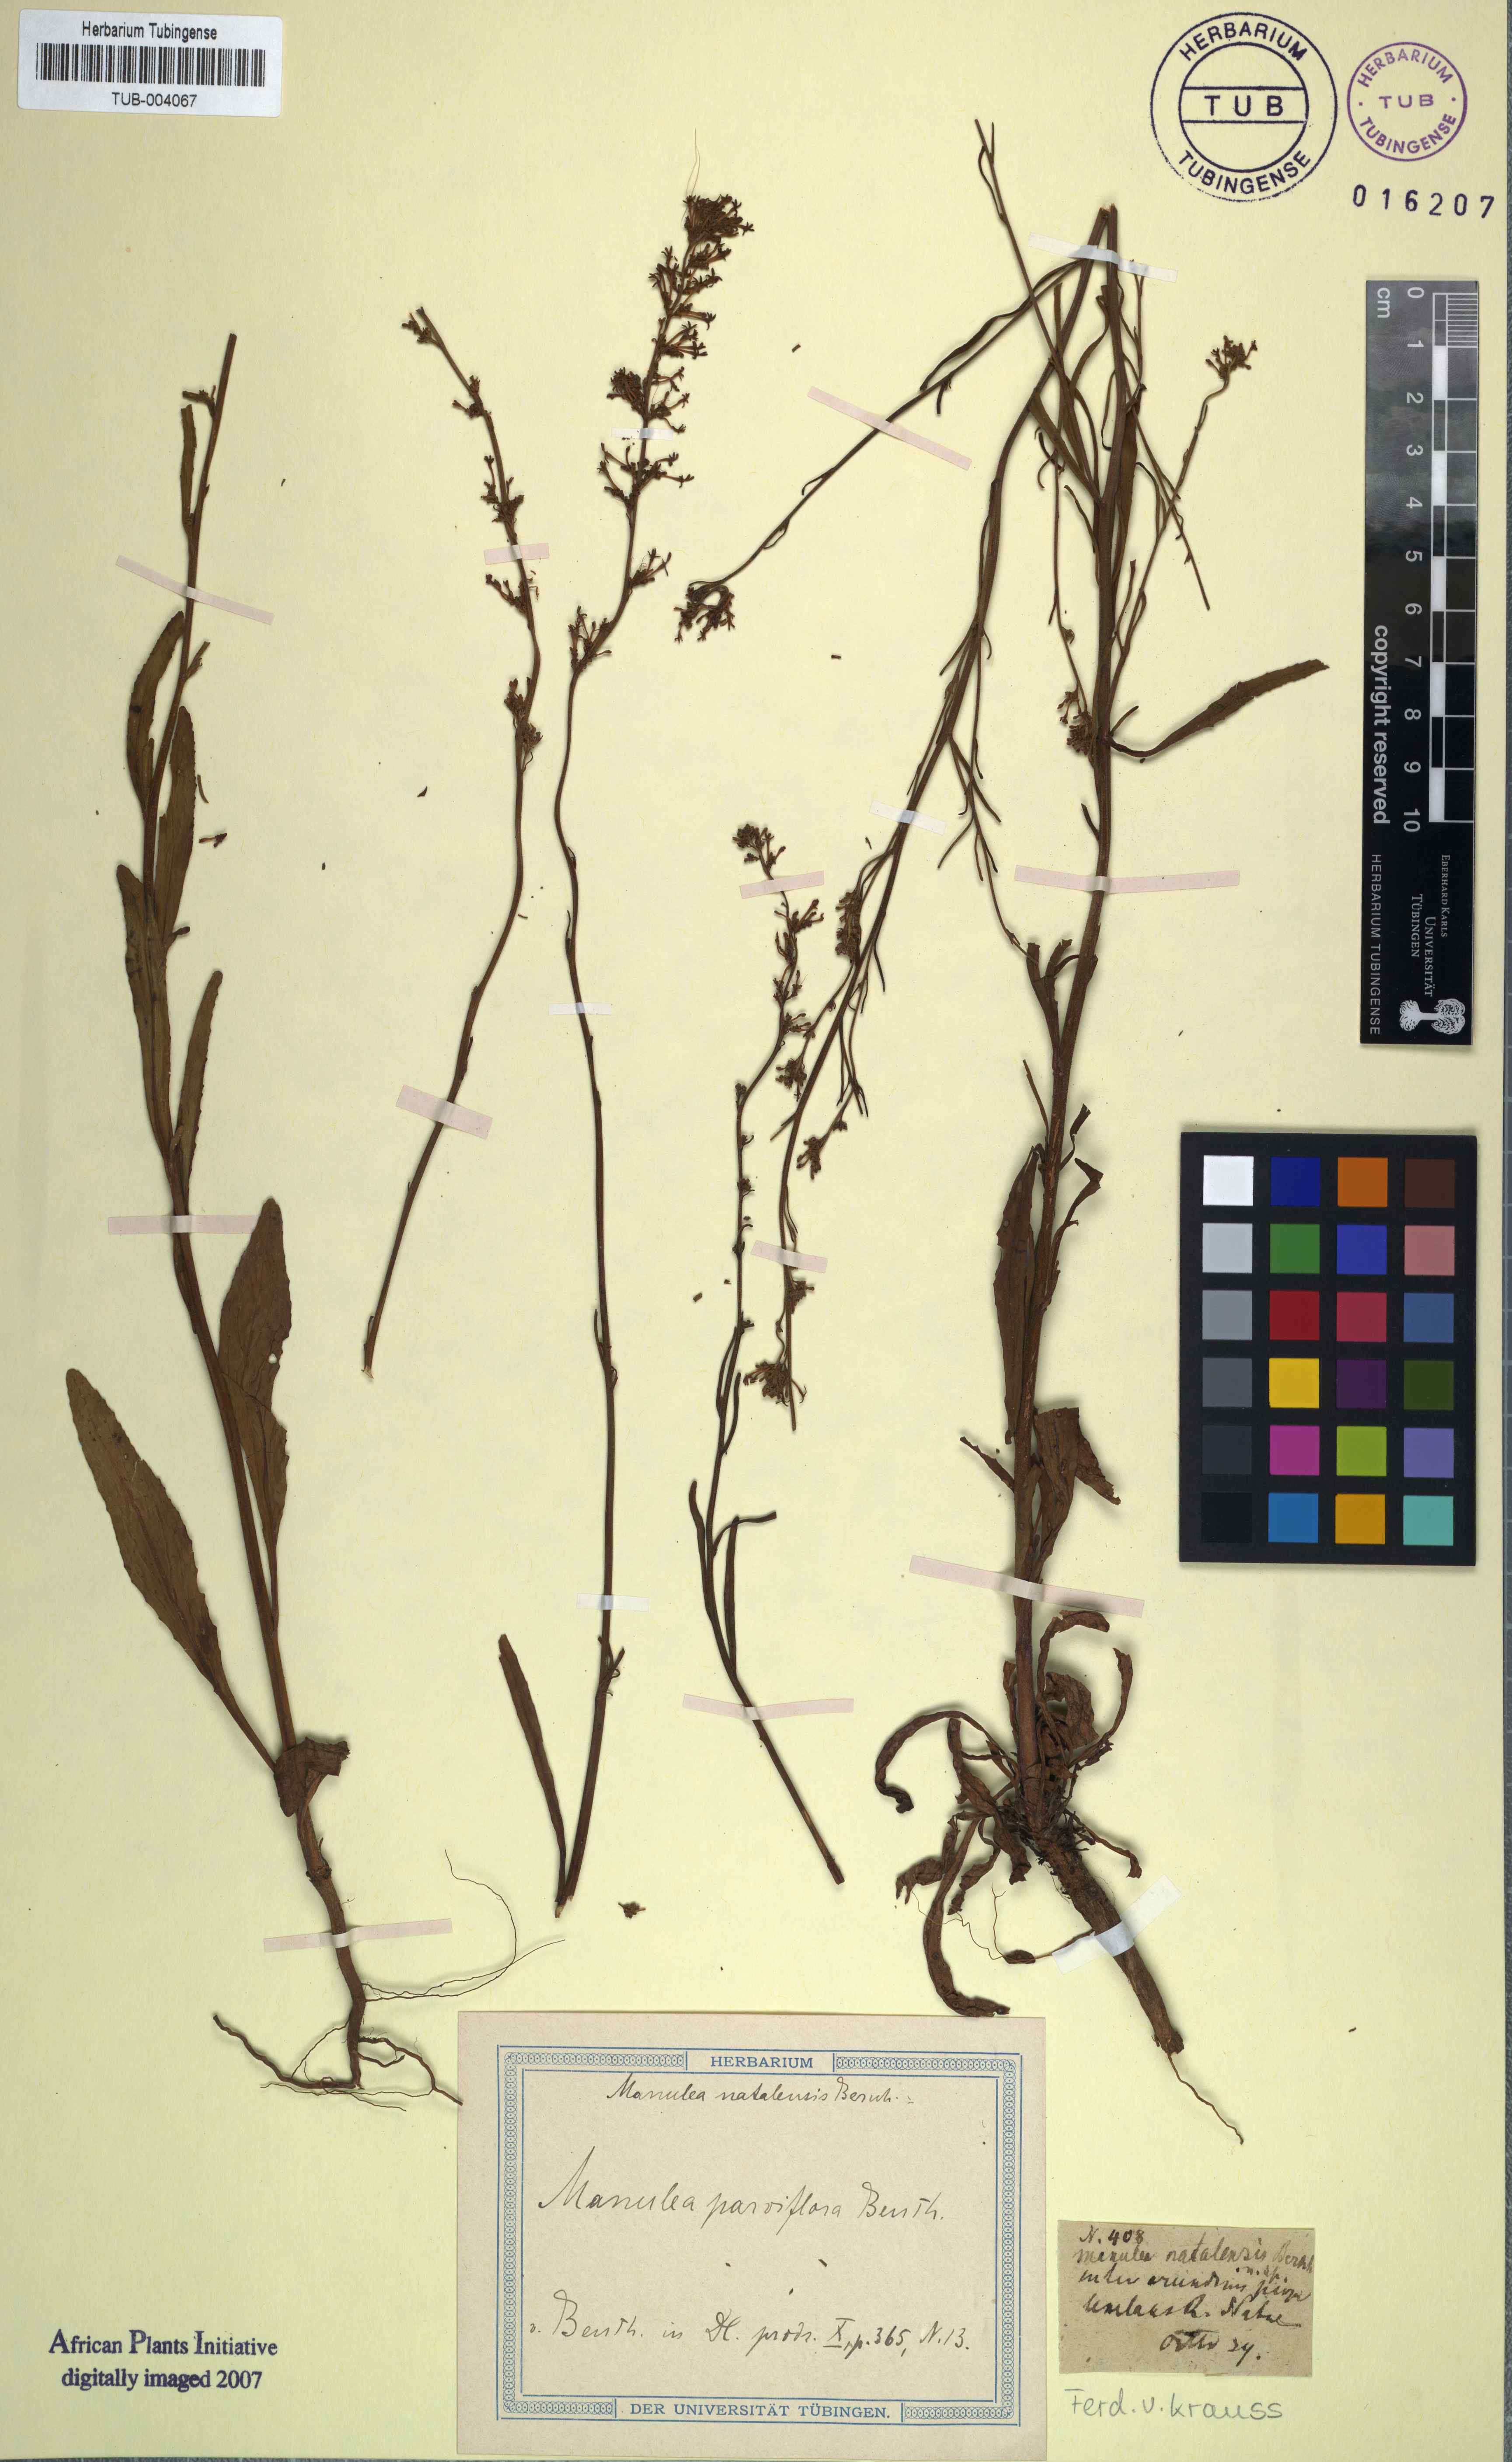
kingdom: Plantae
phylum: Tracheophyta
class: Magnoliopsida
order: Lamiales
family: Scrophulariaceae
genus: Manulea
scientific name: Manulea parviflora
